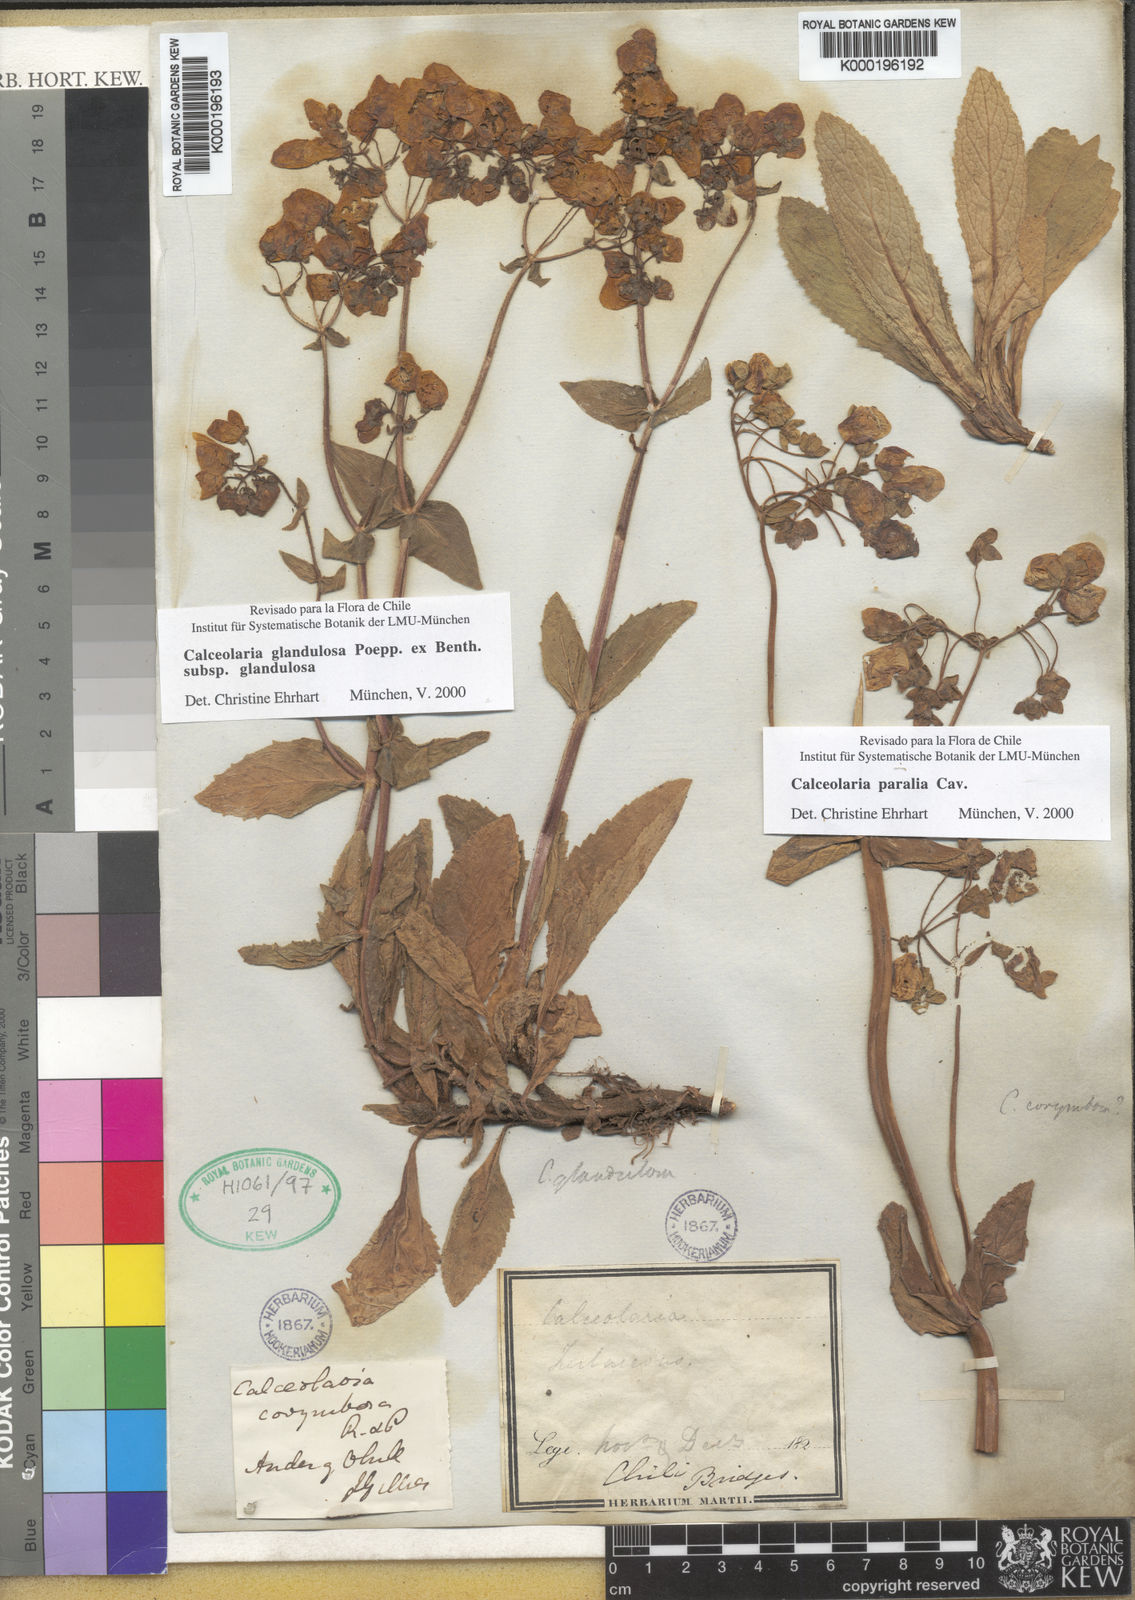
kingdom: Plantae
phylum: Tracheophyta
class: Magnoliopsida
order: Lamiales
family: Calceolariaceae
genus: Calceolaria
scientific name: Calceolaria glandulosa
